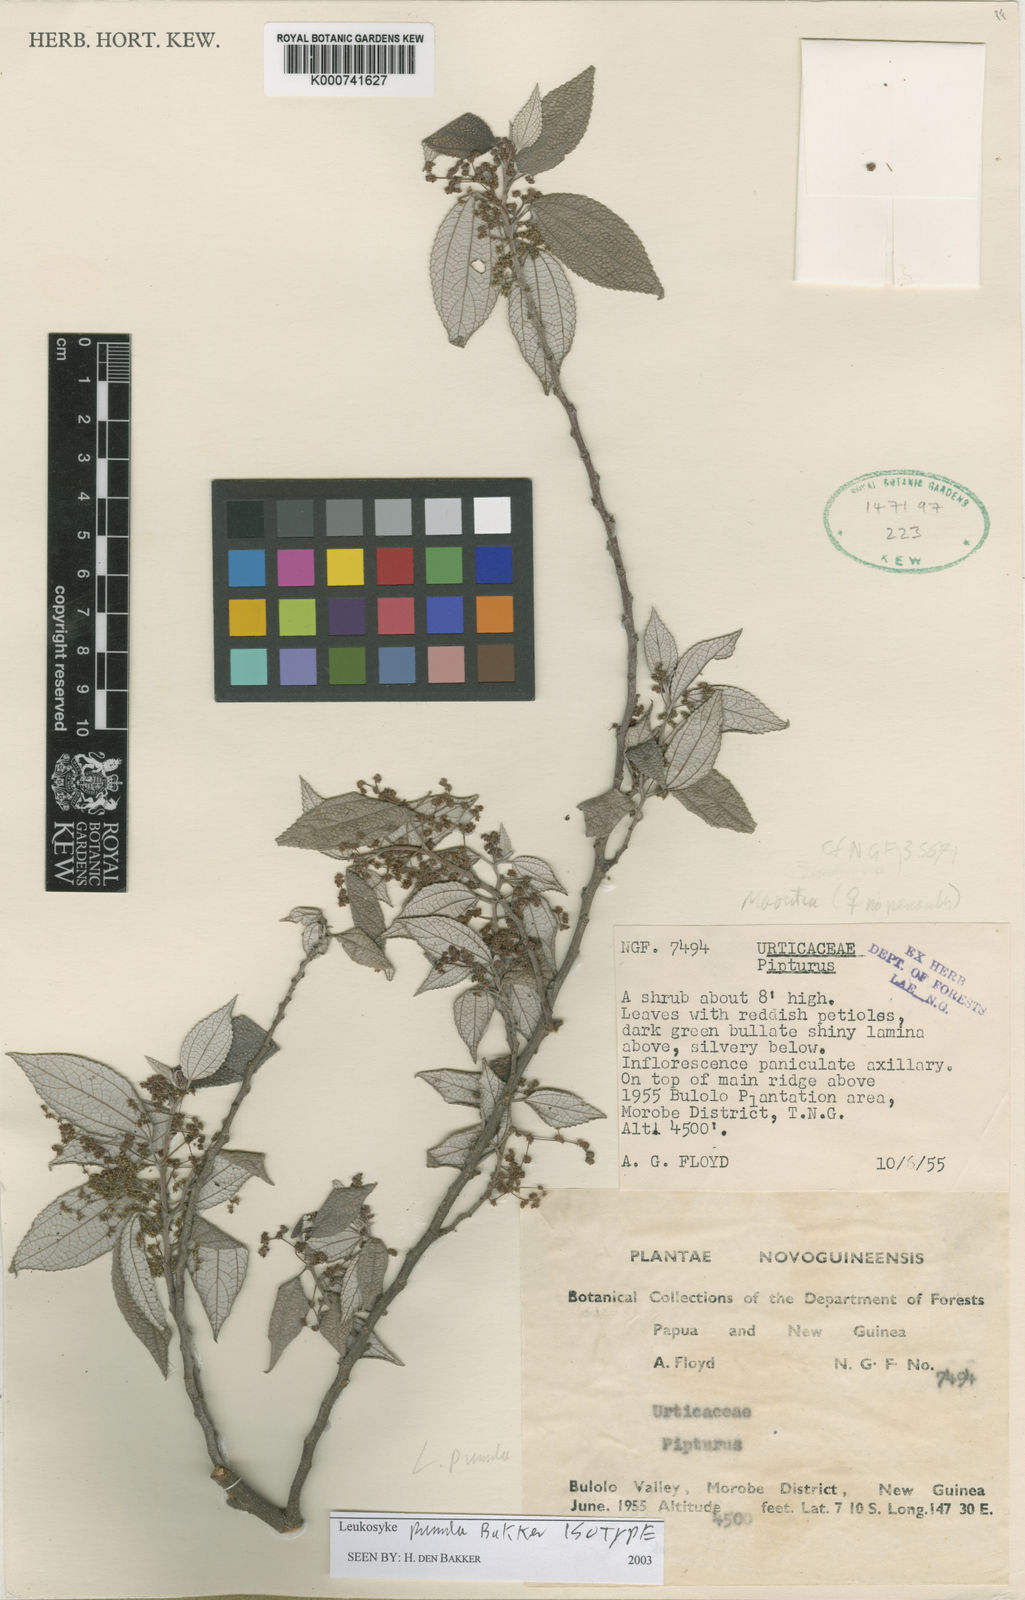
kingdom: Plantae
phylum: Tracheophyta
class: Magnoliopsida
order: Rosales
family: Urticaceae
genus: Leucosyke
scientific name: Leucosyke
